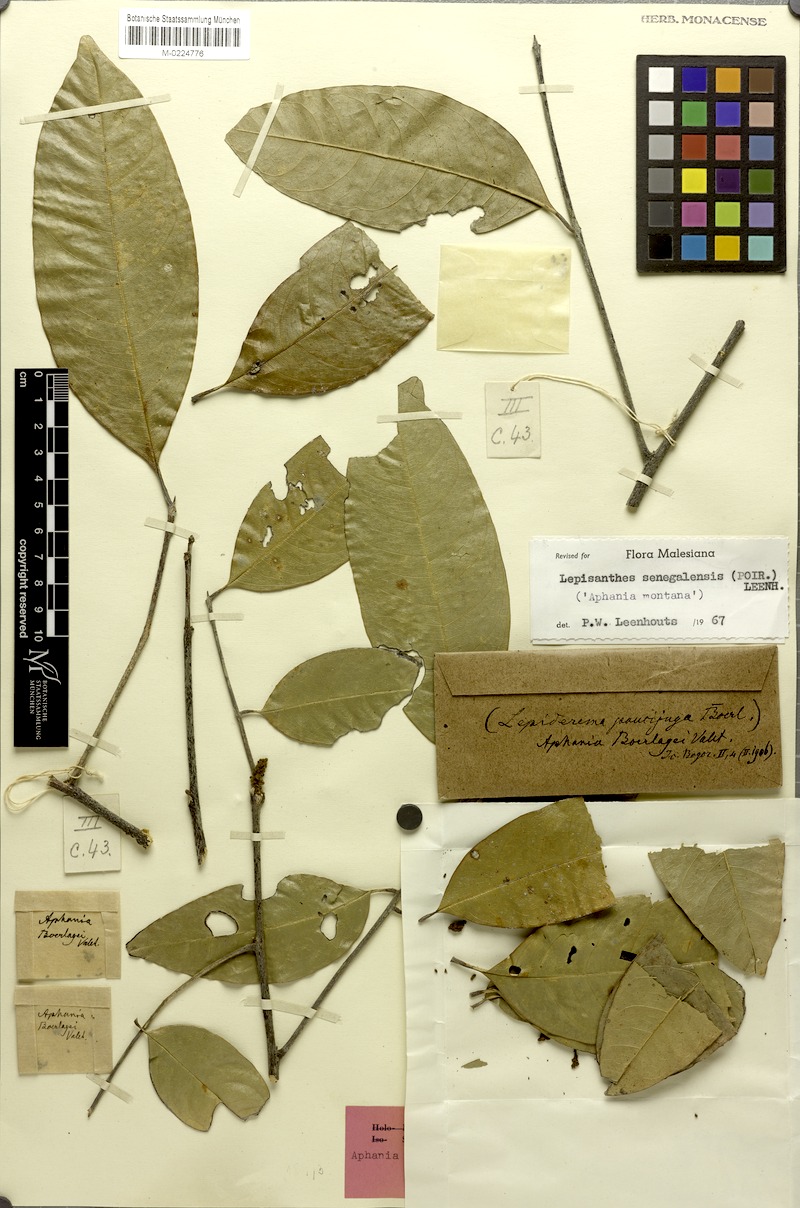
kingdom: Plantae
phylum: Tracheophyta
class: Magnoliopsida
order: Sapindales
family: Sapindaceae
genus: Lepisanthes
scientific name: Lepisanthes senegalensis
